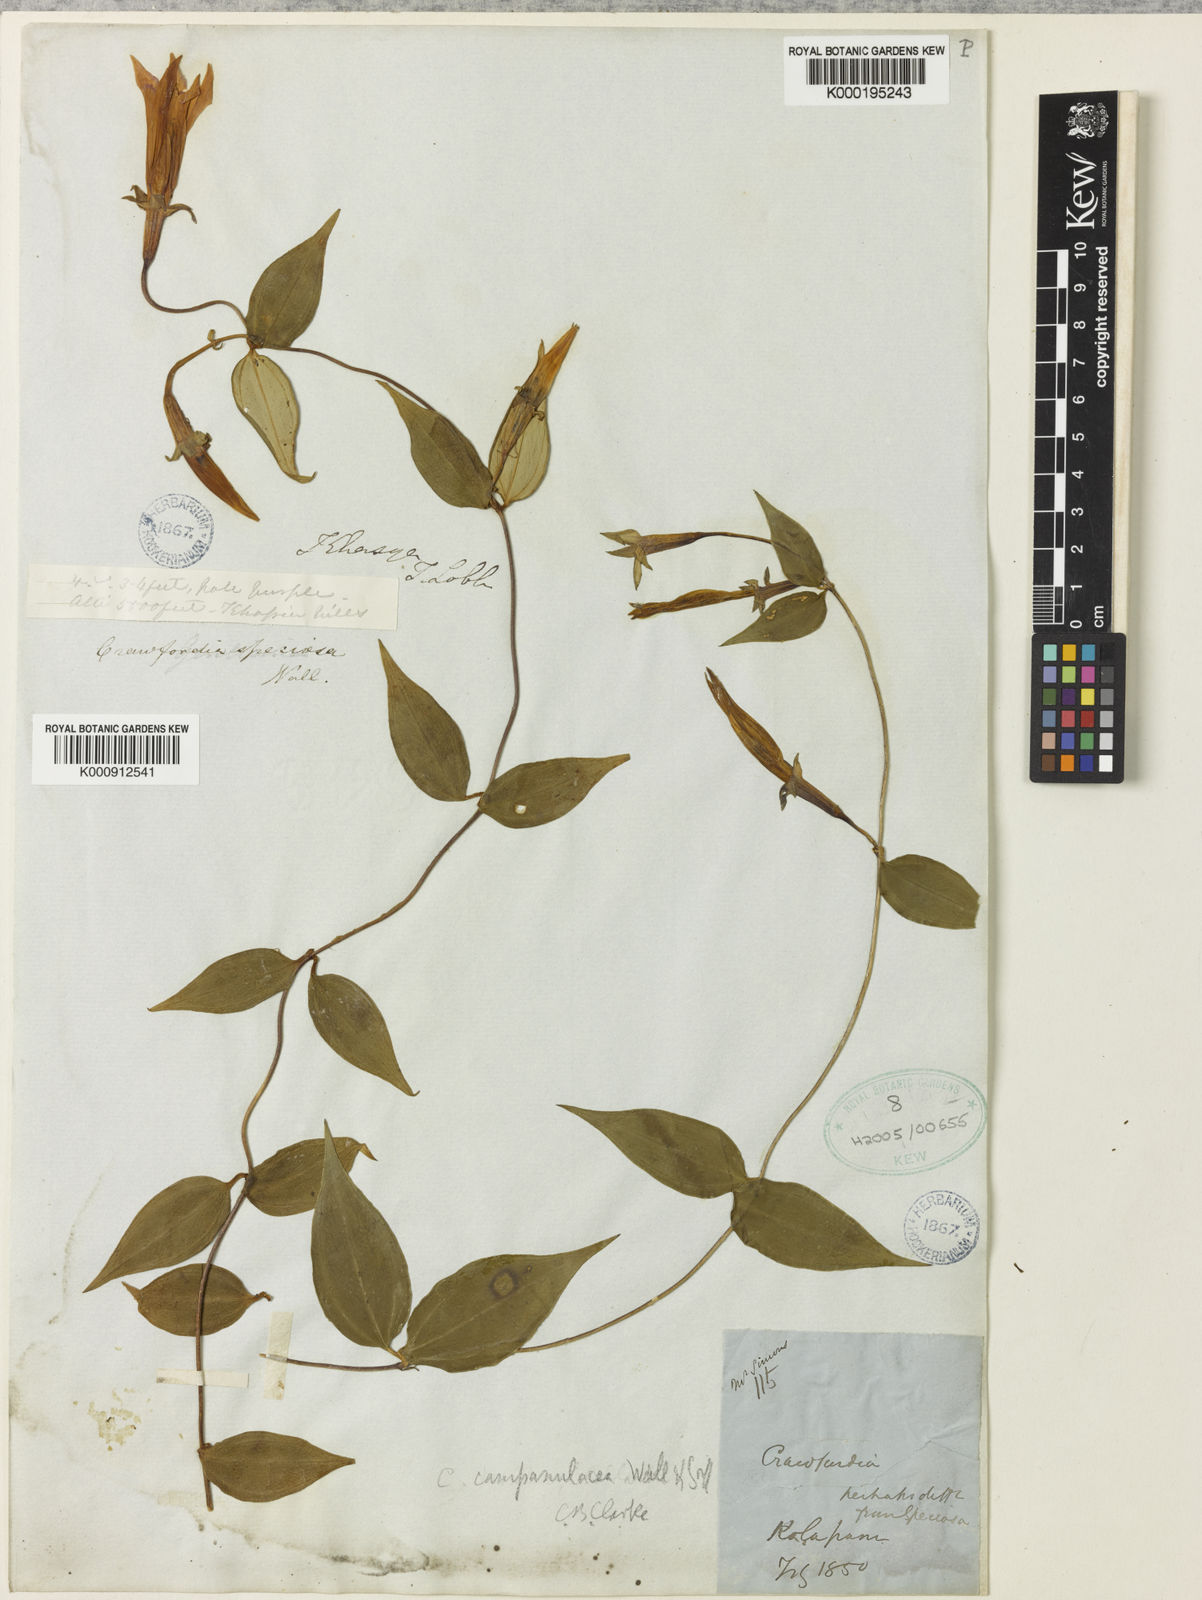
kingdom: Plantae
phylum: Tracheophyta
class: Magnoliopsida
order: Gentianales
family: Gentianaceae
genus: Crawfurdia
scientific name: Crawfurdia campanulacea
